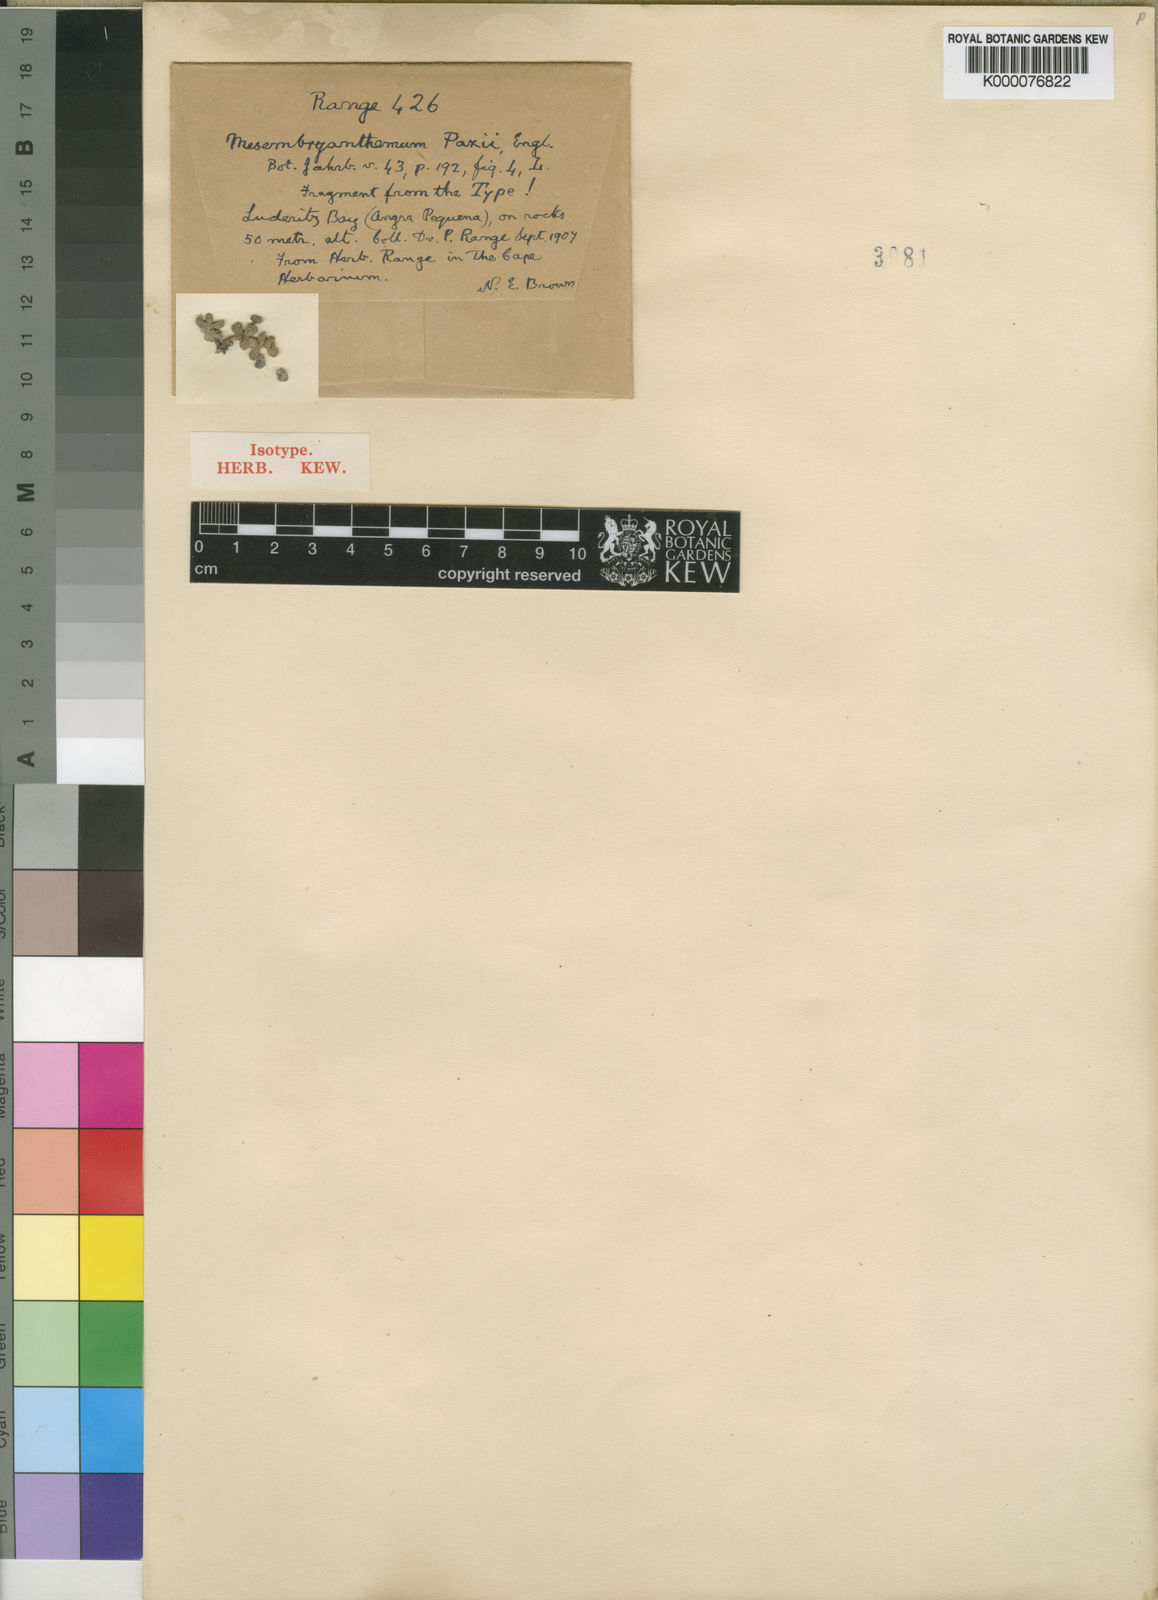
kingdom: Plantae
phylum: Tracheophyta
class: Magnoliopsida
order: Caryophyllales
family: Aizoaceae
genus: Drosanthemum
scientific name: Drosanthemum luederitzii
